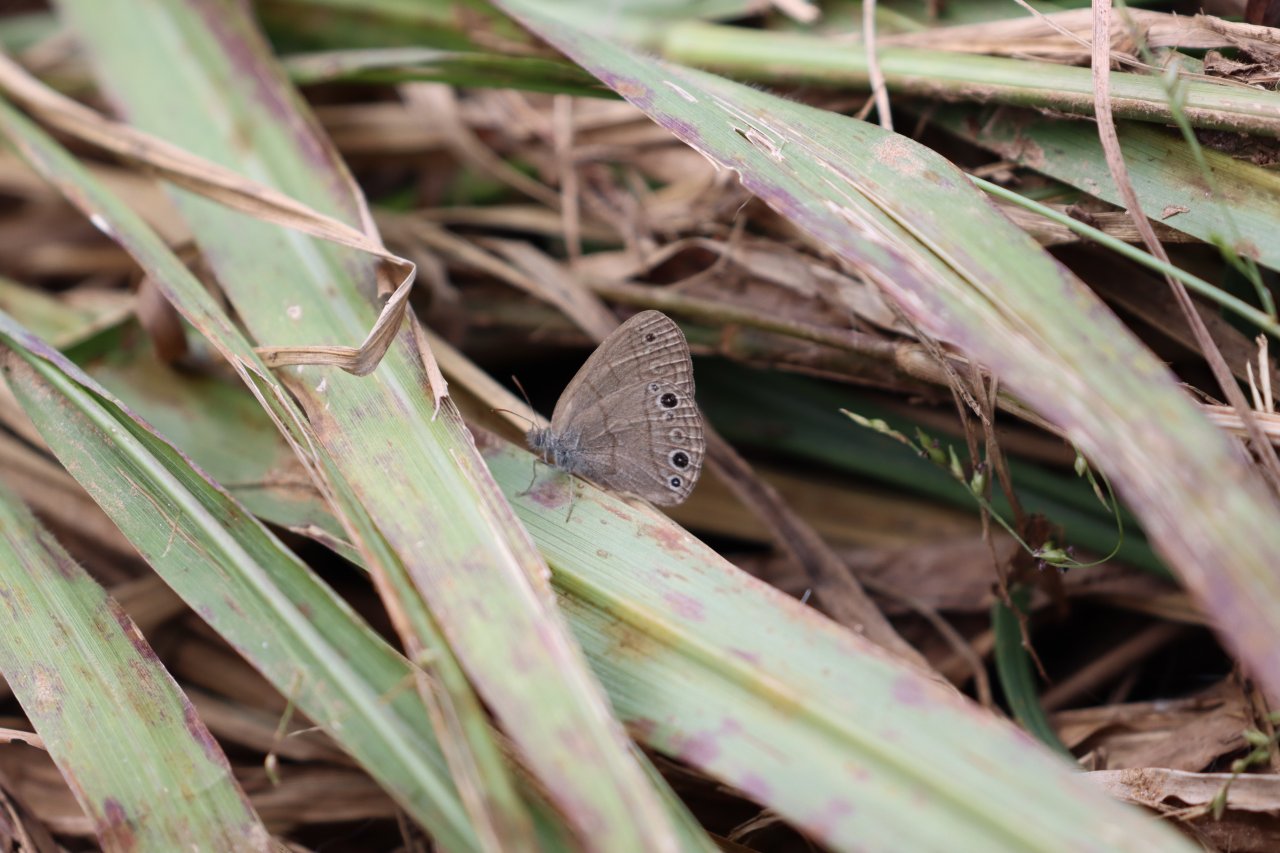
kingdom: Animalia
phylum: Arthropoda
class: Insecta
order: Lepidoptera
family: Nymphalidae
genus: Hermeuptychia
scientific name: Hermeuptychia hermes
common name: Carolina Satyr
